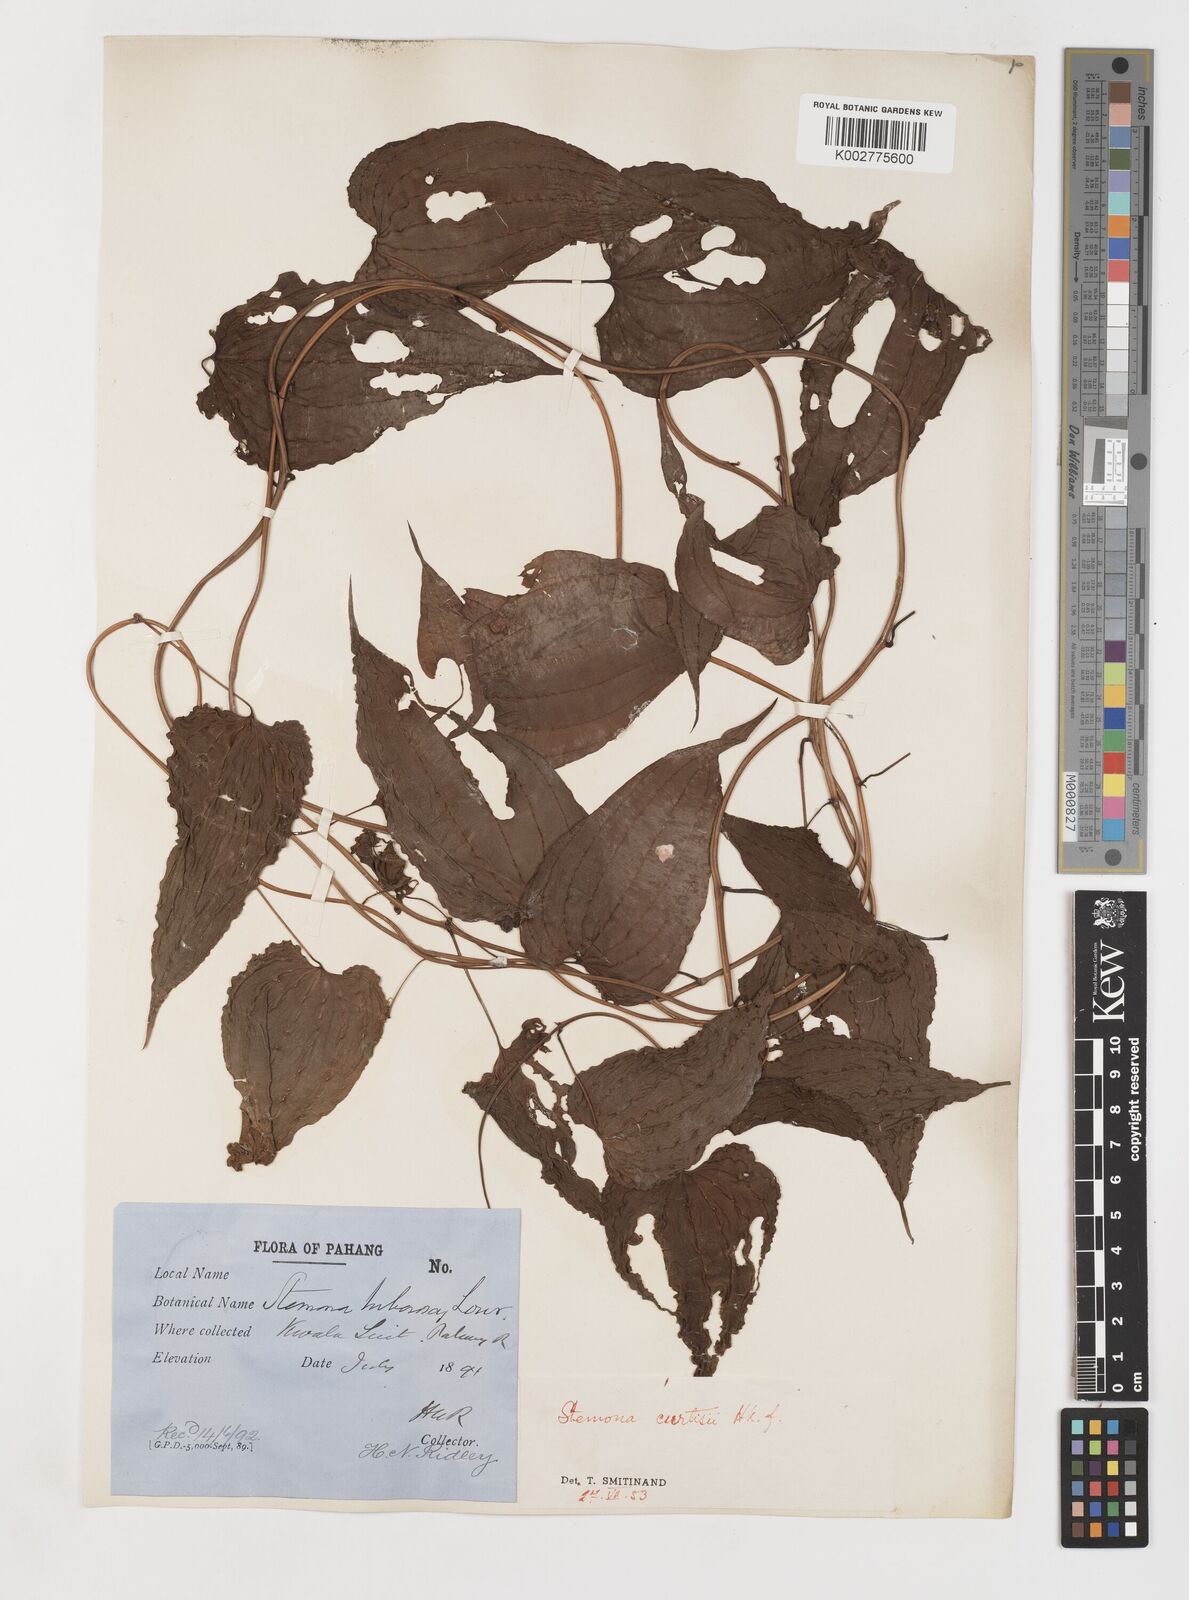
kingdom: Plantae
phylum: Tracheophyta
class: Liliopsida
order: Pandanales
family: Stemonaceae
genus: Stemona
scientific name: Stemona tuberosa
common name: Stemona
